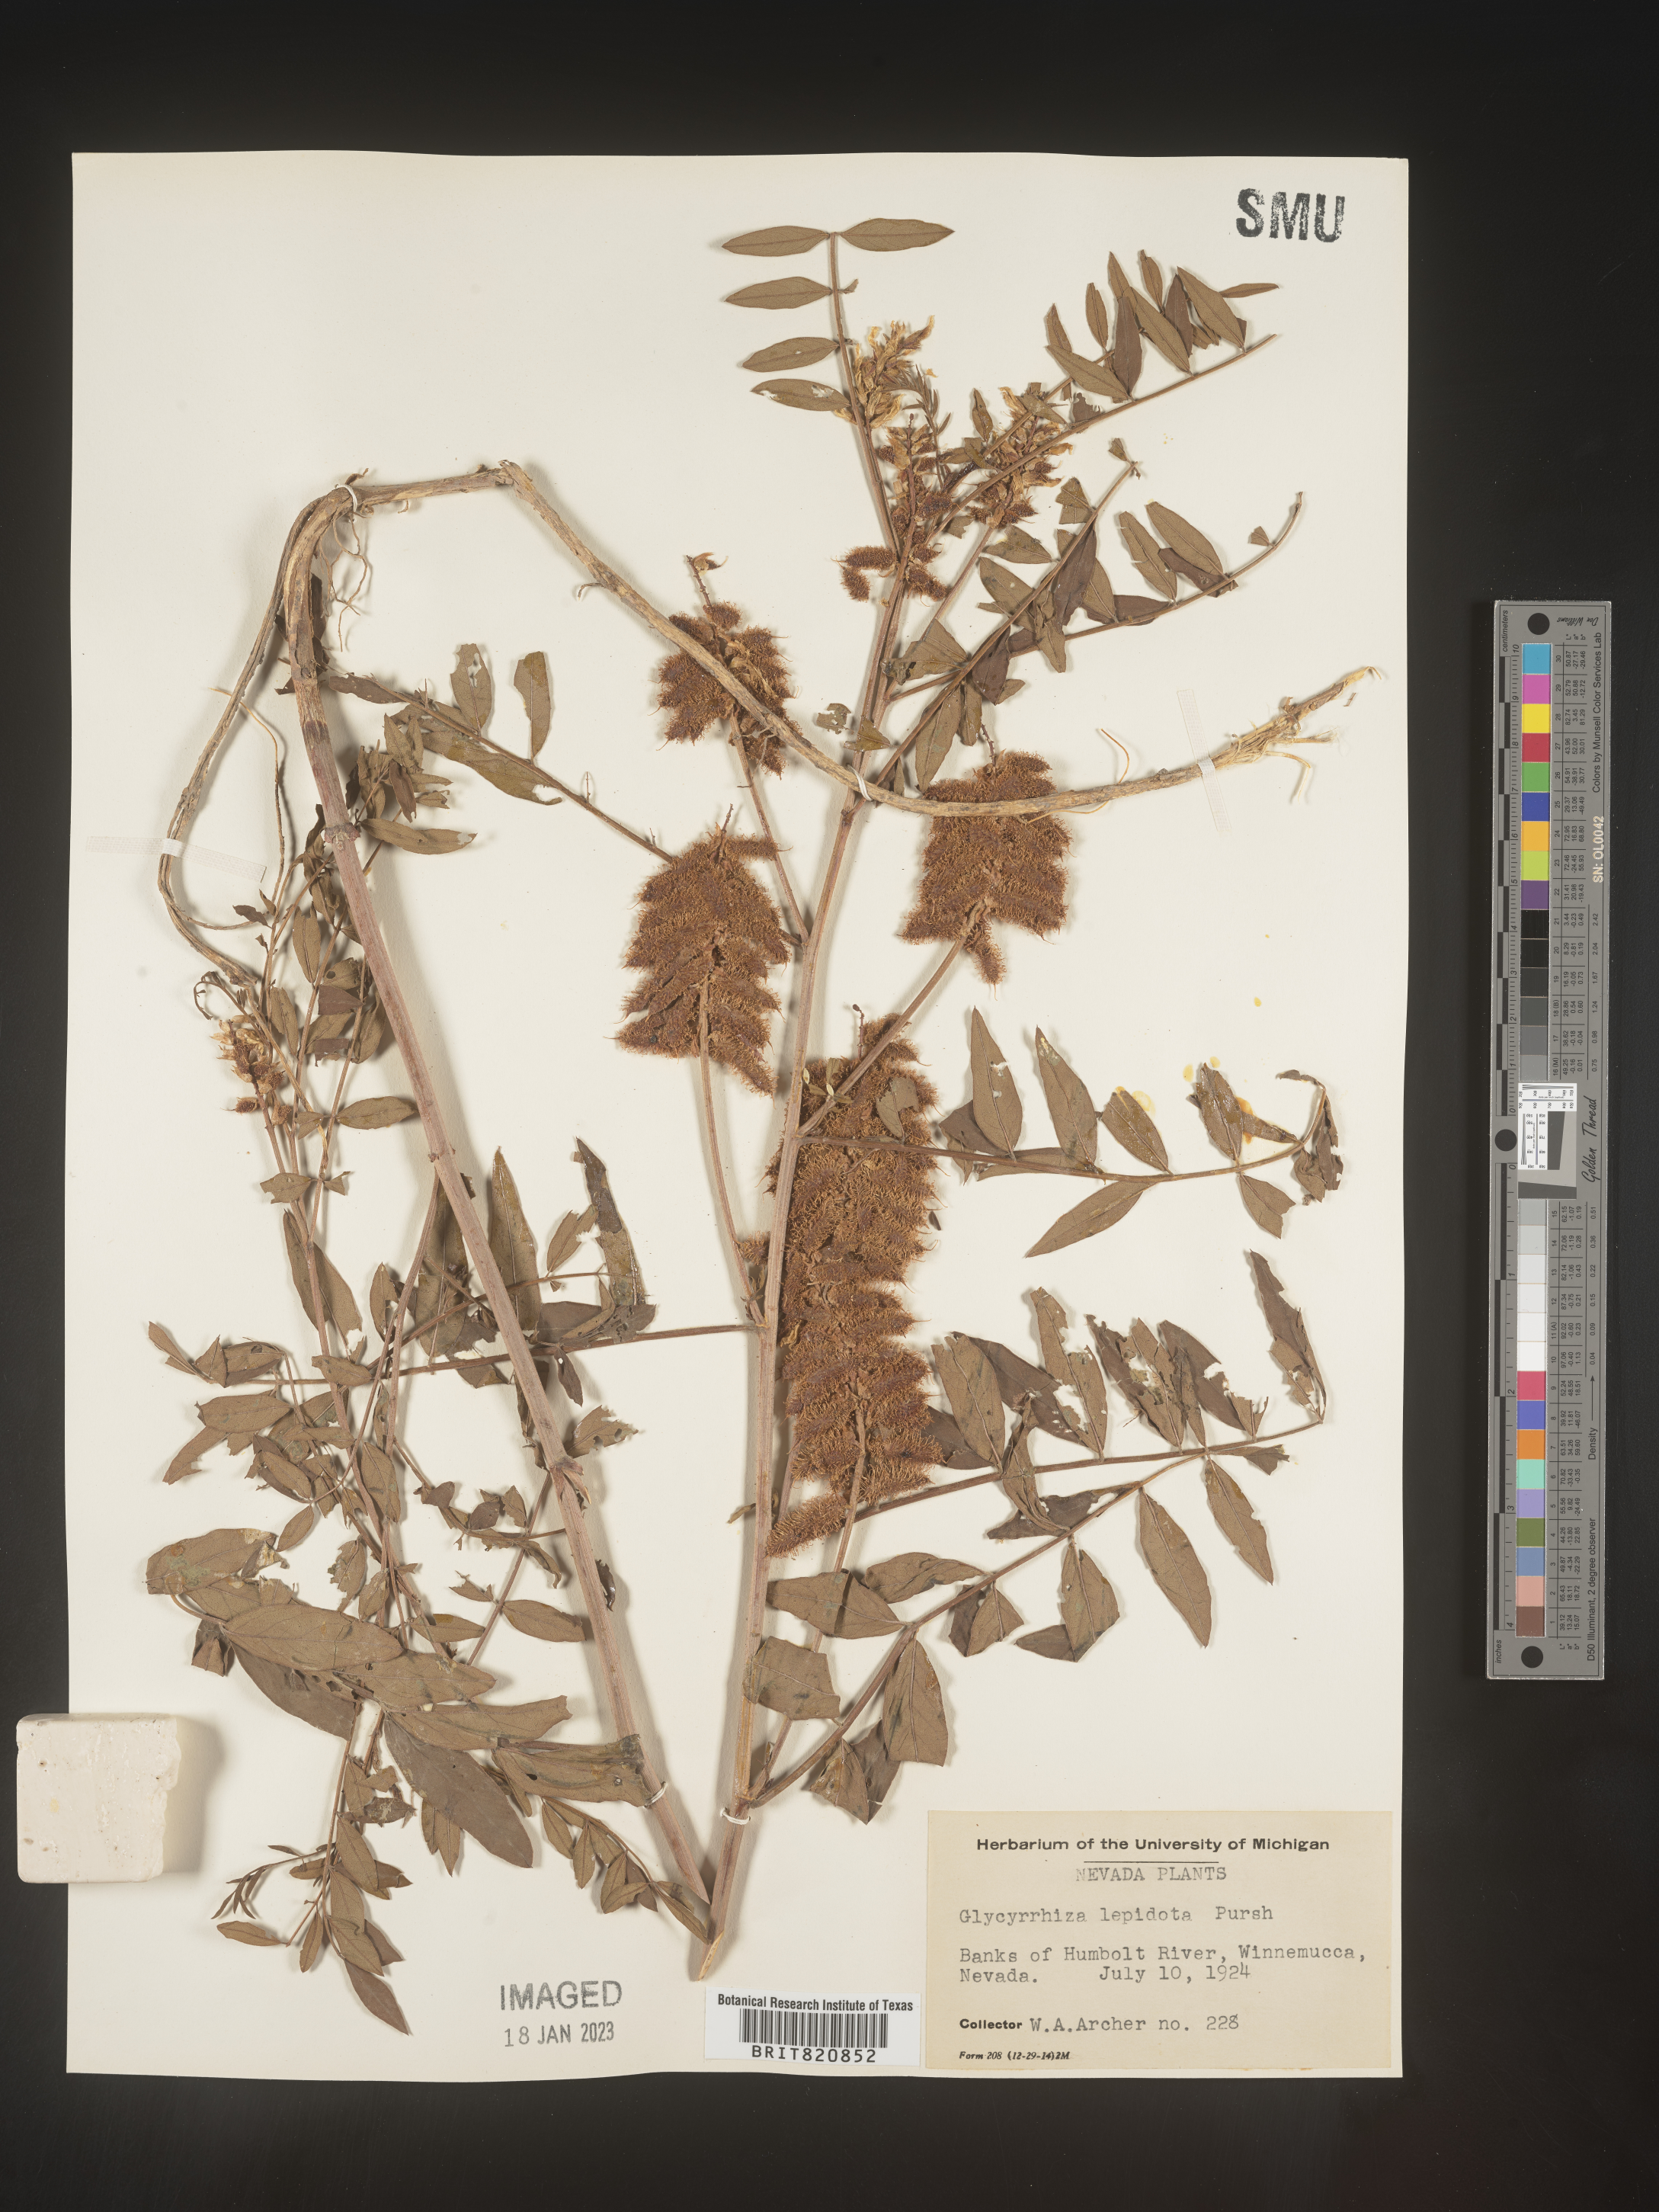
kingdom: Plantae
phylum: Tracheophyta
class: Magnoliopsida
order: Fabales
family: Fabaceae
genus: Glycyrrhiza
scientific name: Glycyrrhiza lepidota
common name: American liquorice
